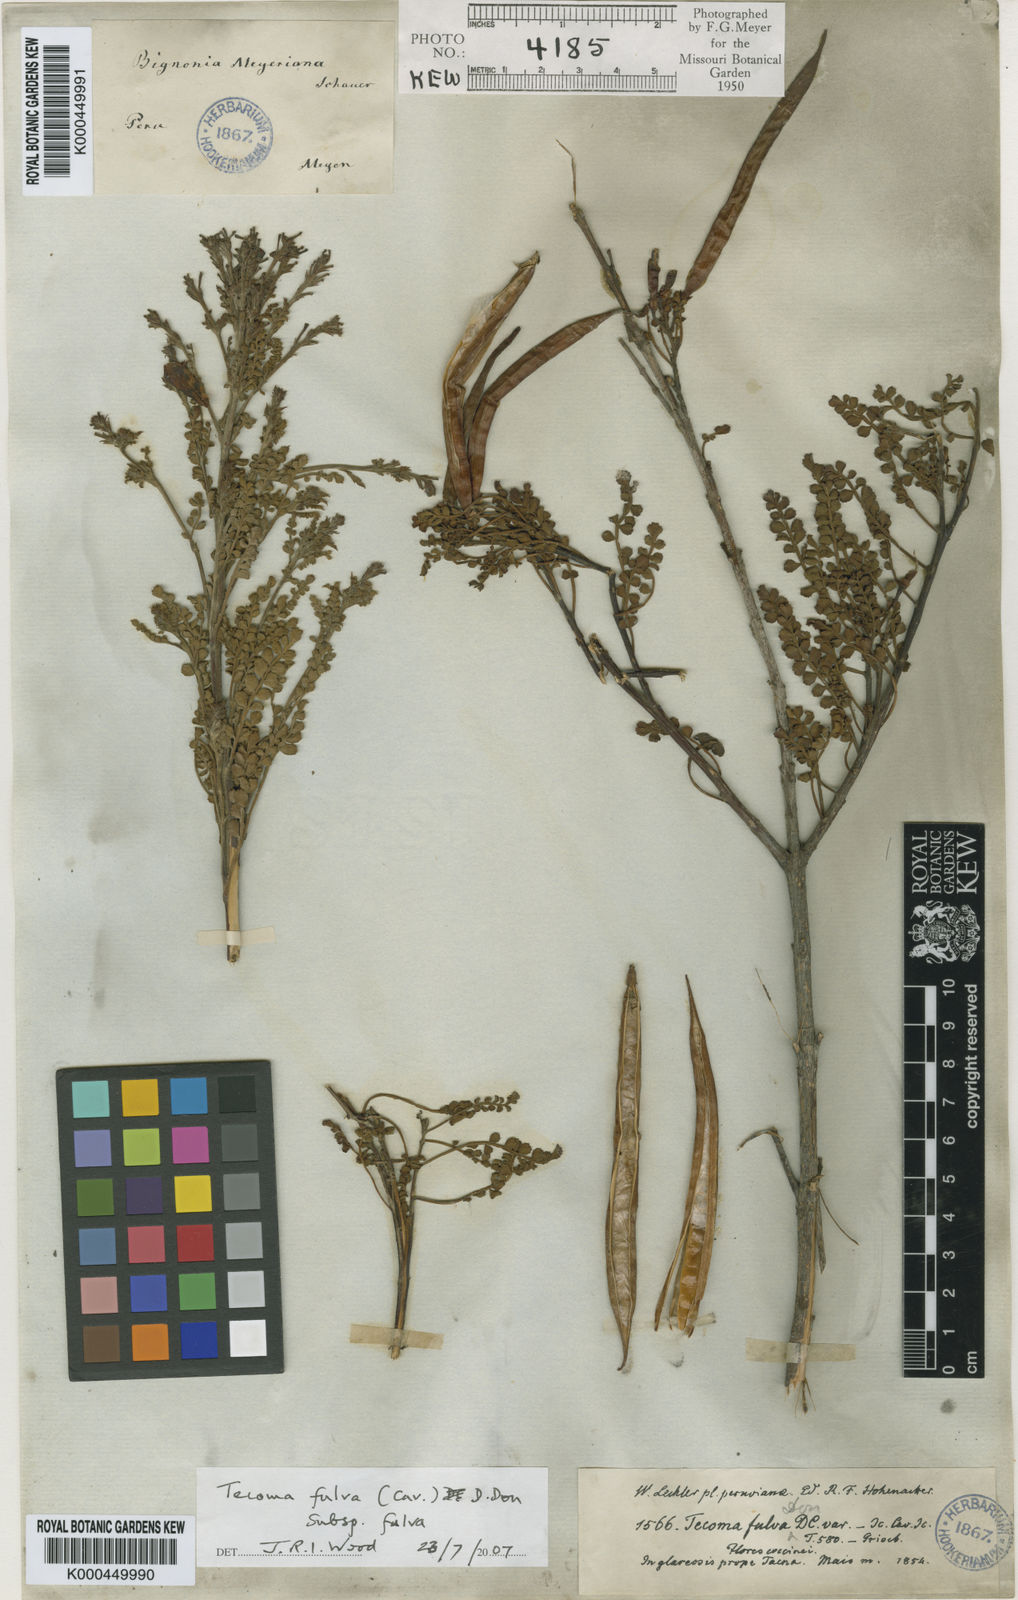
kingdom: Plantae
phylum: Tracheophyta
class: Magnoliopsida
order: Lamiales
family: Bignoniaceae
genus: Tecoma
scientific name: Tecoma fulva
